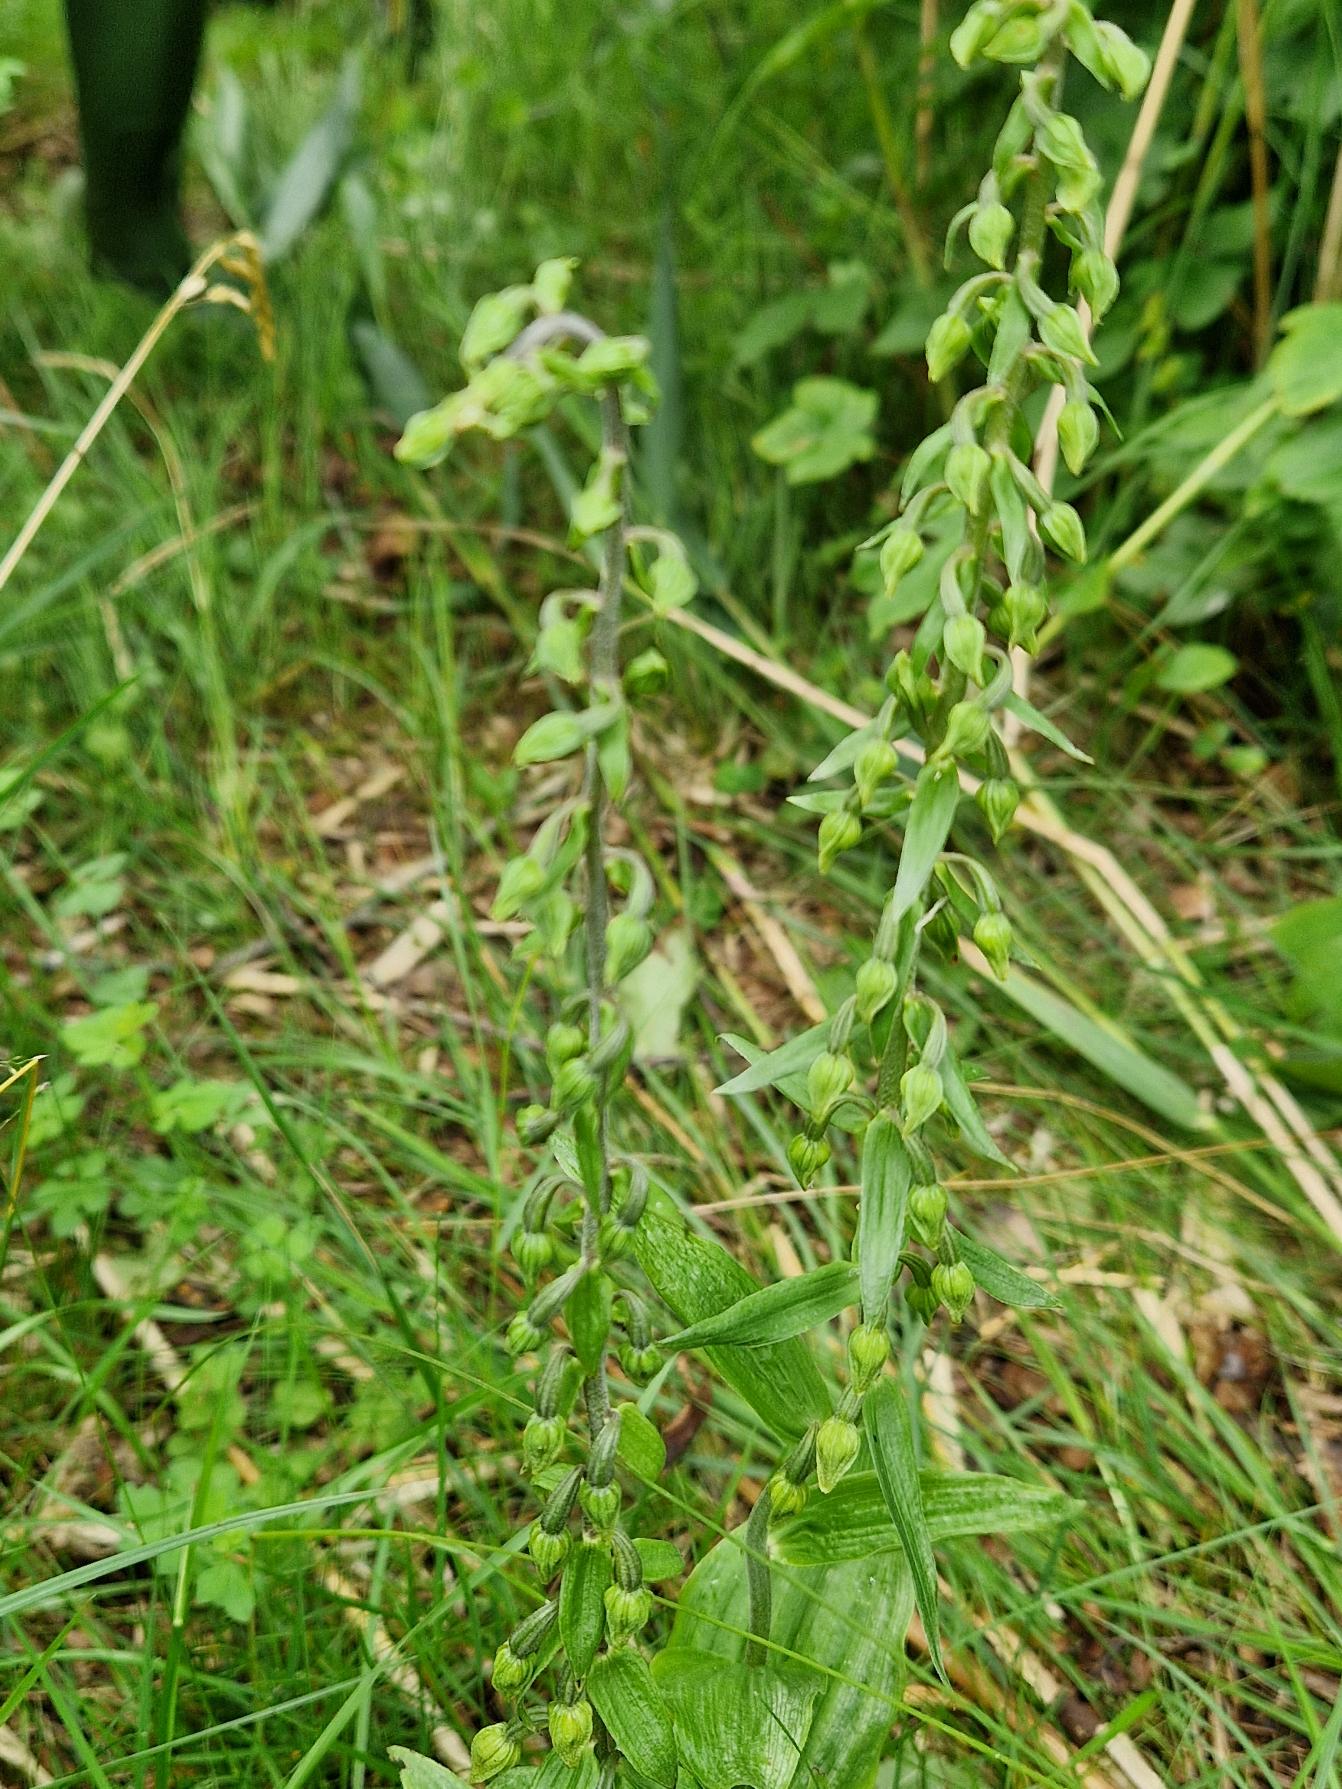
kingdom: Plantae
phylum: Tracheophyta
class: Liliopsida
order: Asparagales
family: Orchidaceae
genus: Epipactis
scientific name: Epipactis helleborine
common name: Skov-hullæbe
